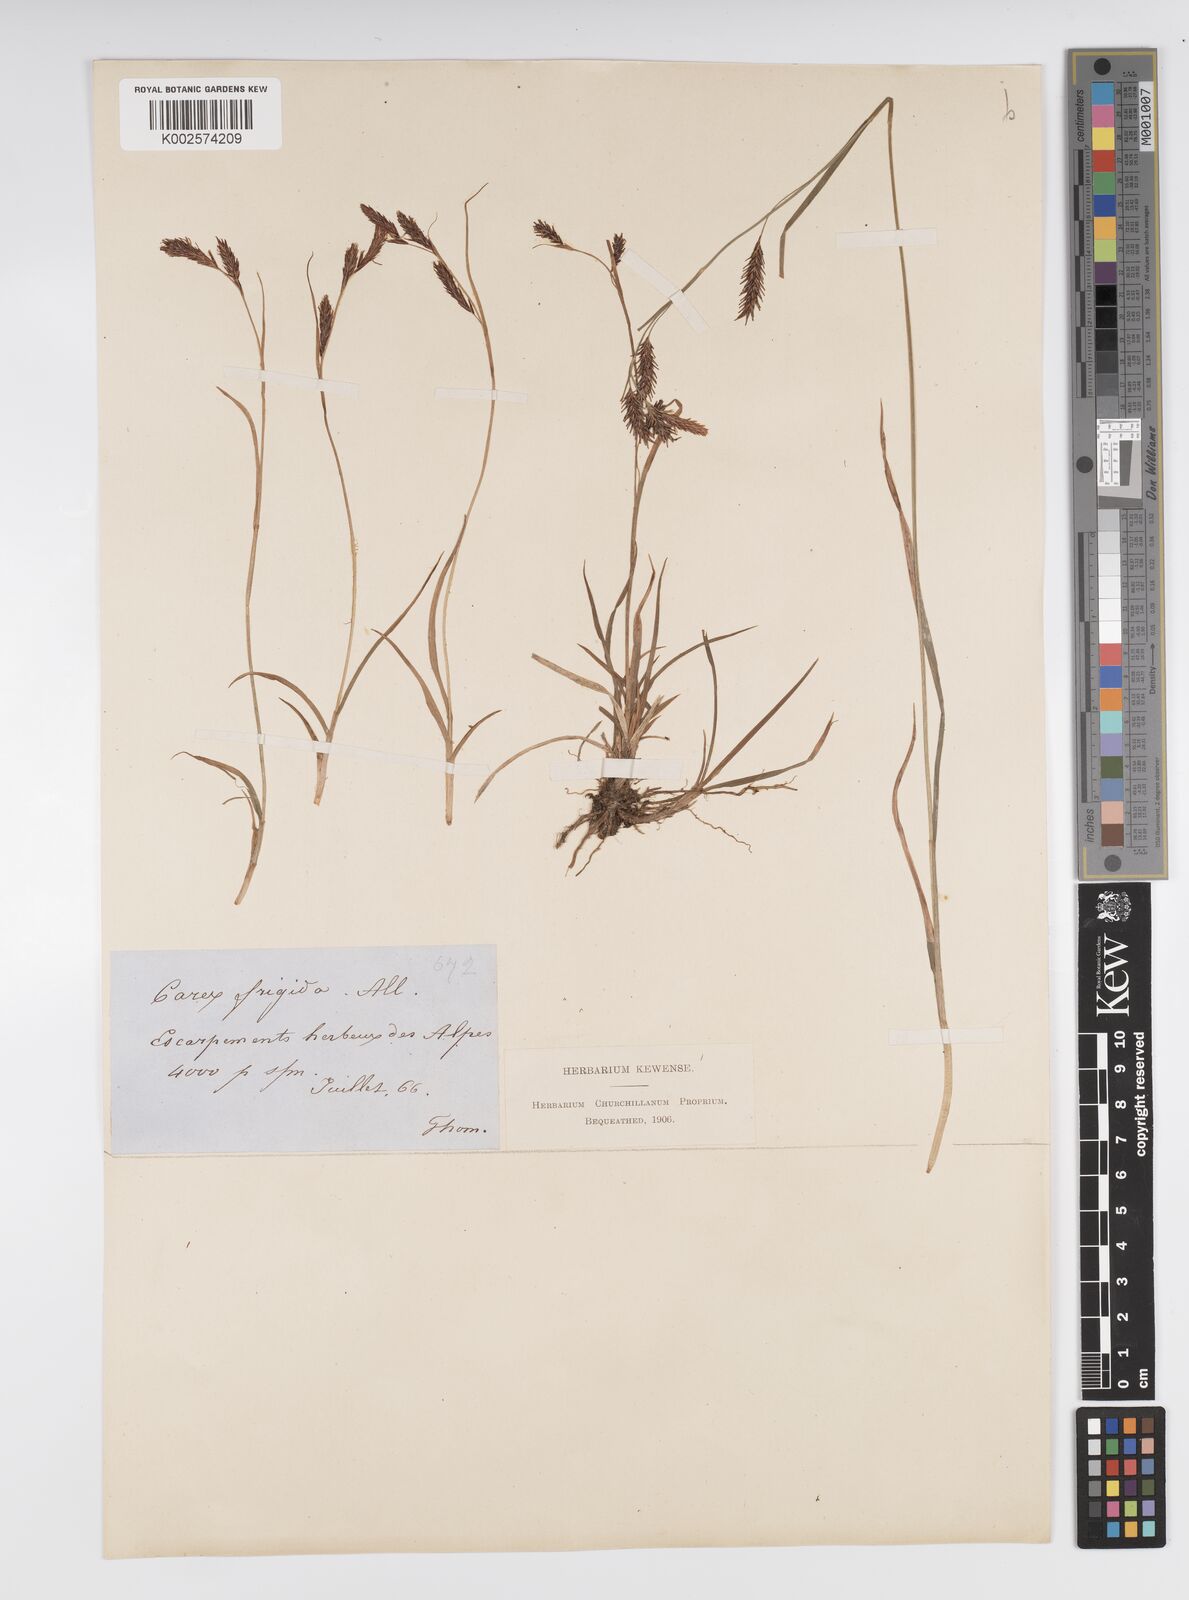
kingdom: Plantae
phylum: Tracheophyta
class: Liliopsida
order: Poales
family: Cyperaceae
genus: Carex
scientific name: Carex frigida
